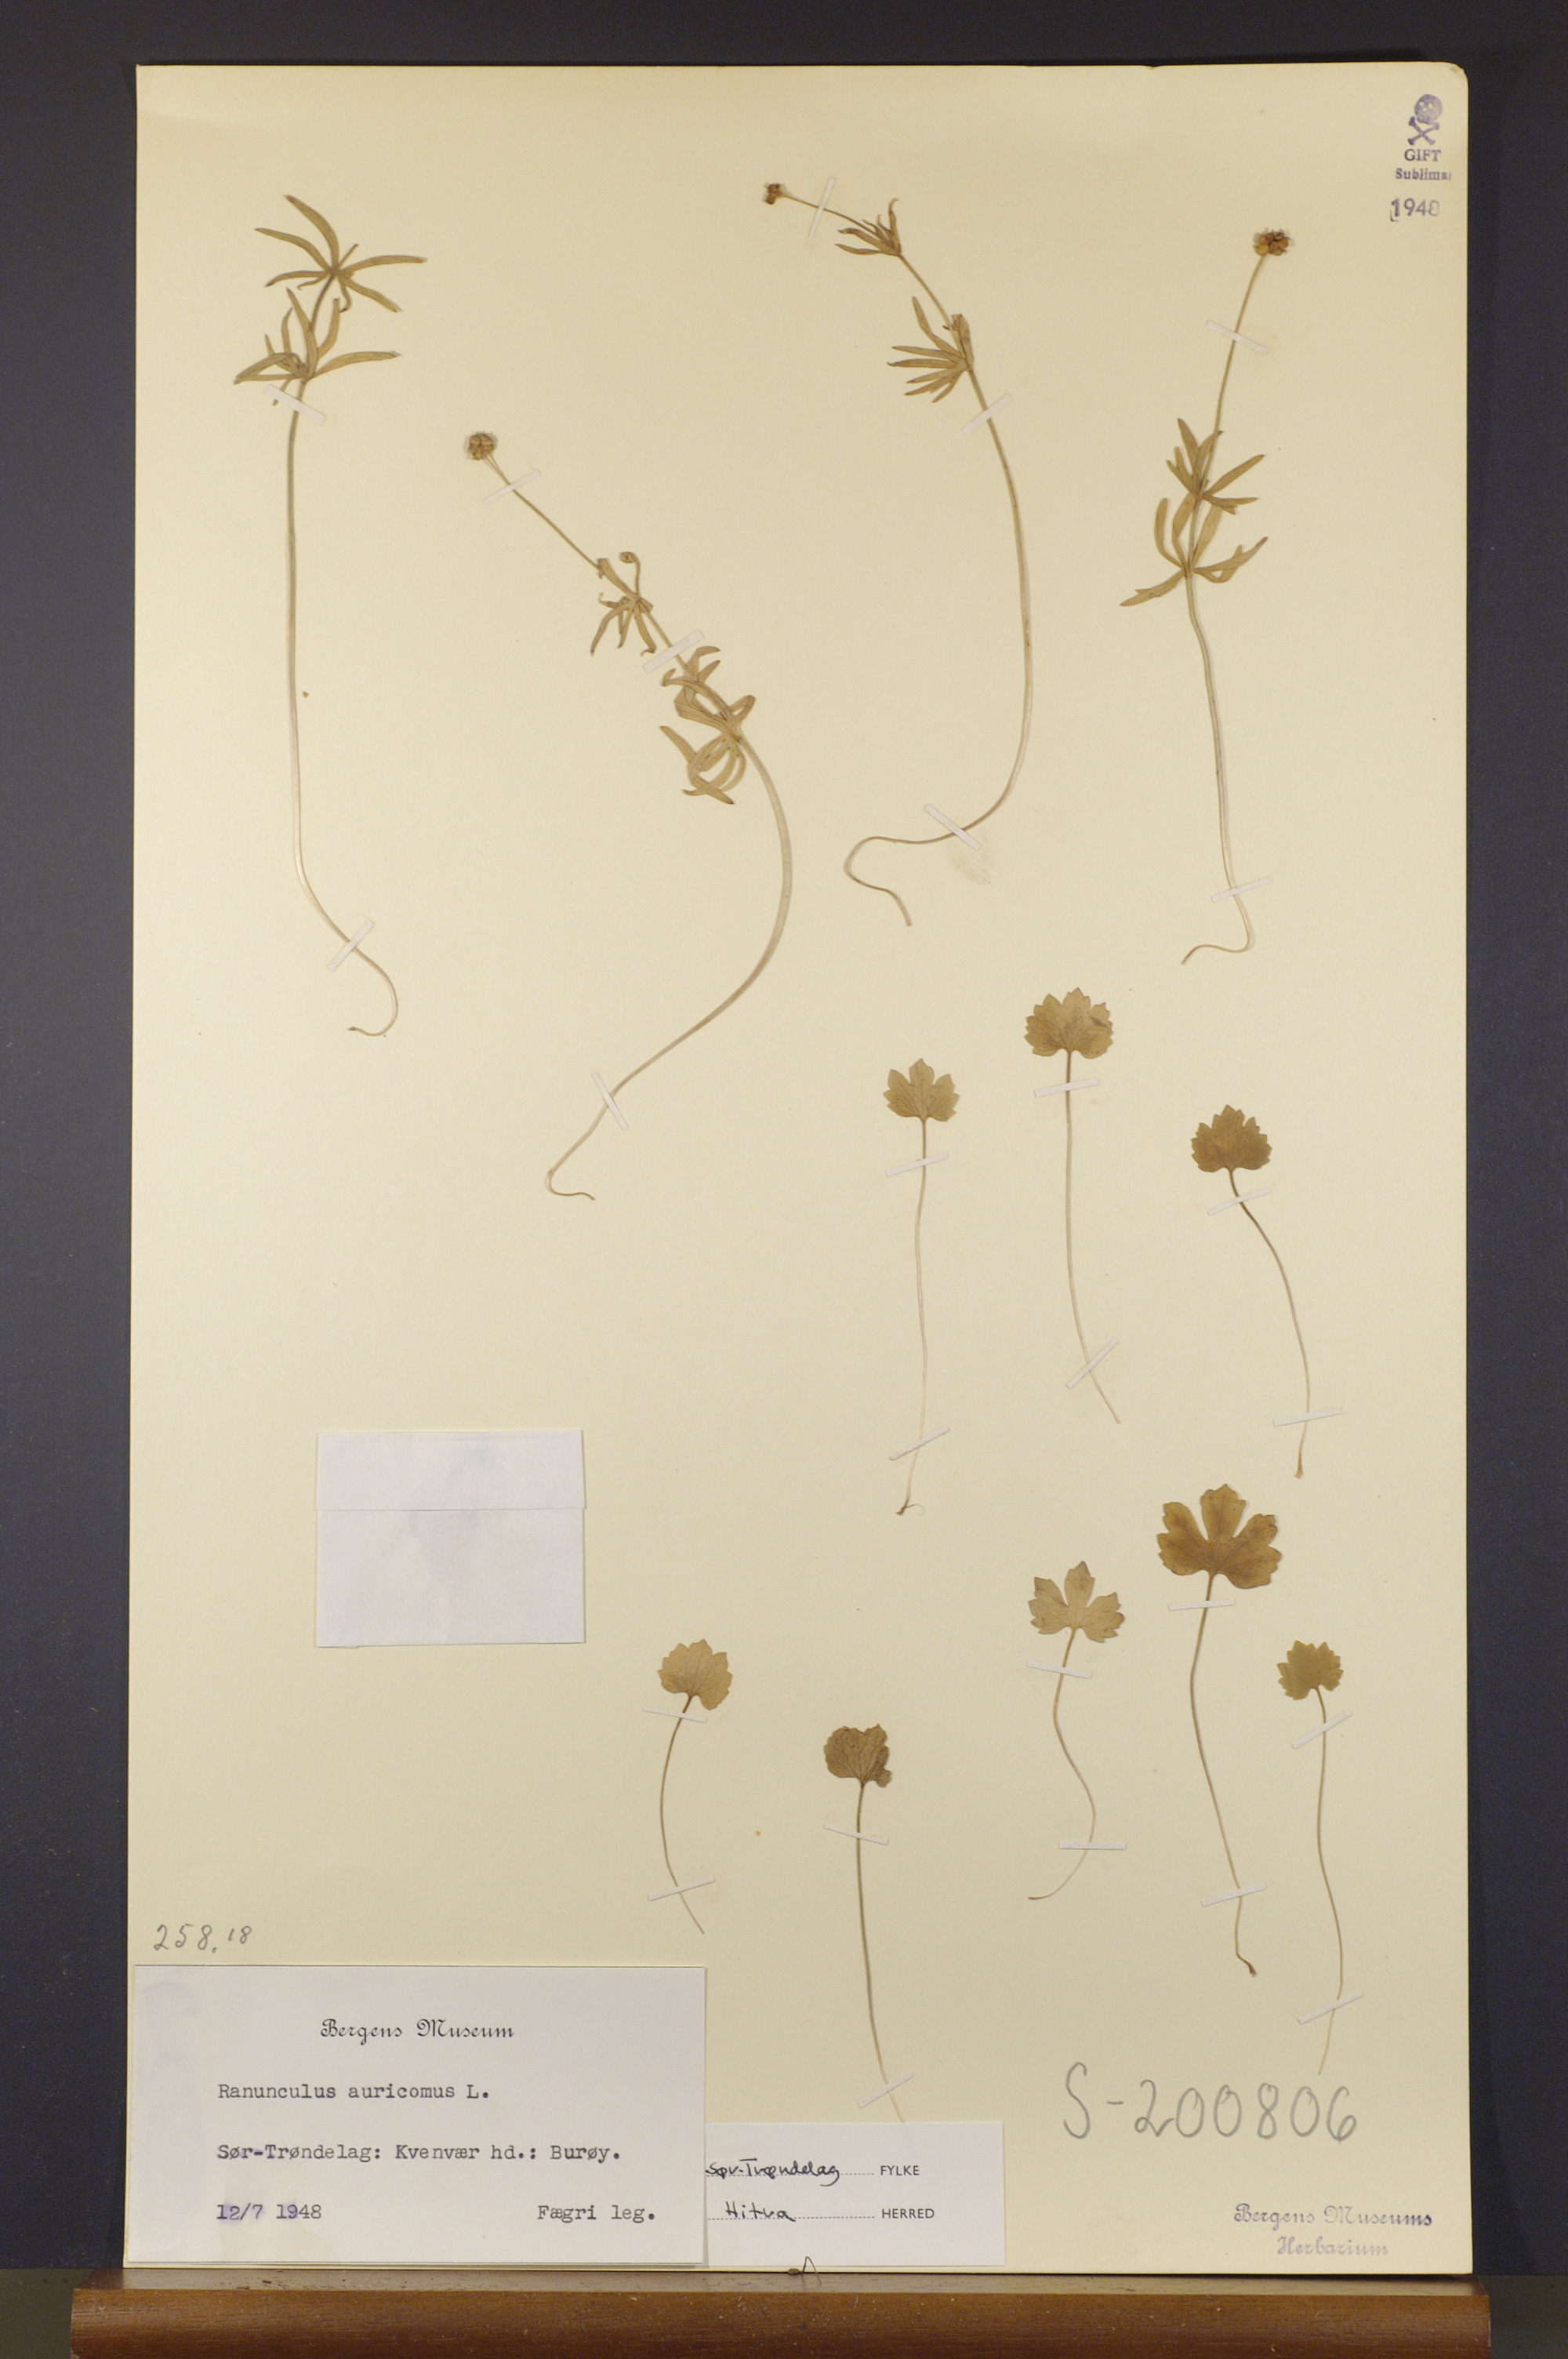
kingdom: Plantae
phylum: Tracheophyta
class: Magnoliopsida
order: Ranunculales
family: Ranunculaceae
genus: Ranunculus
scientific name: Ranunculus auricomus
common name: Goldilocks buttercup
